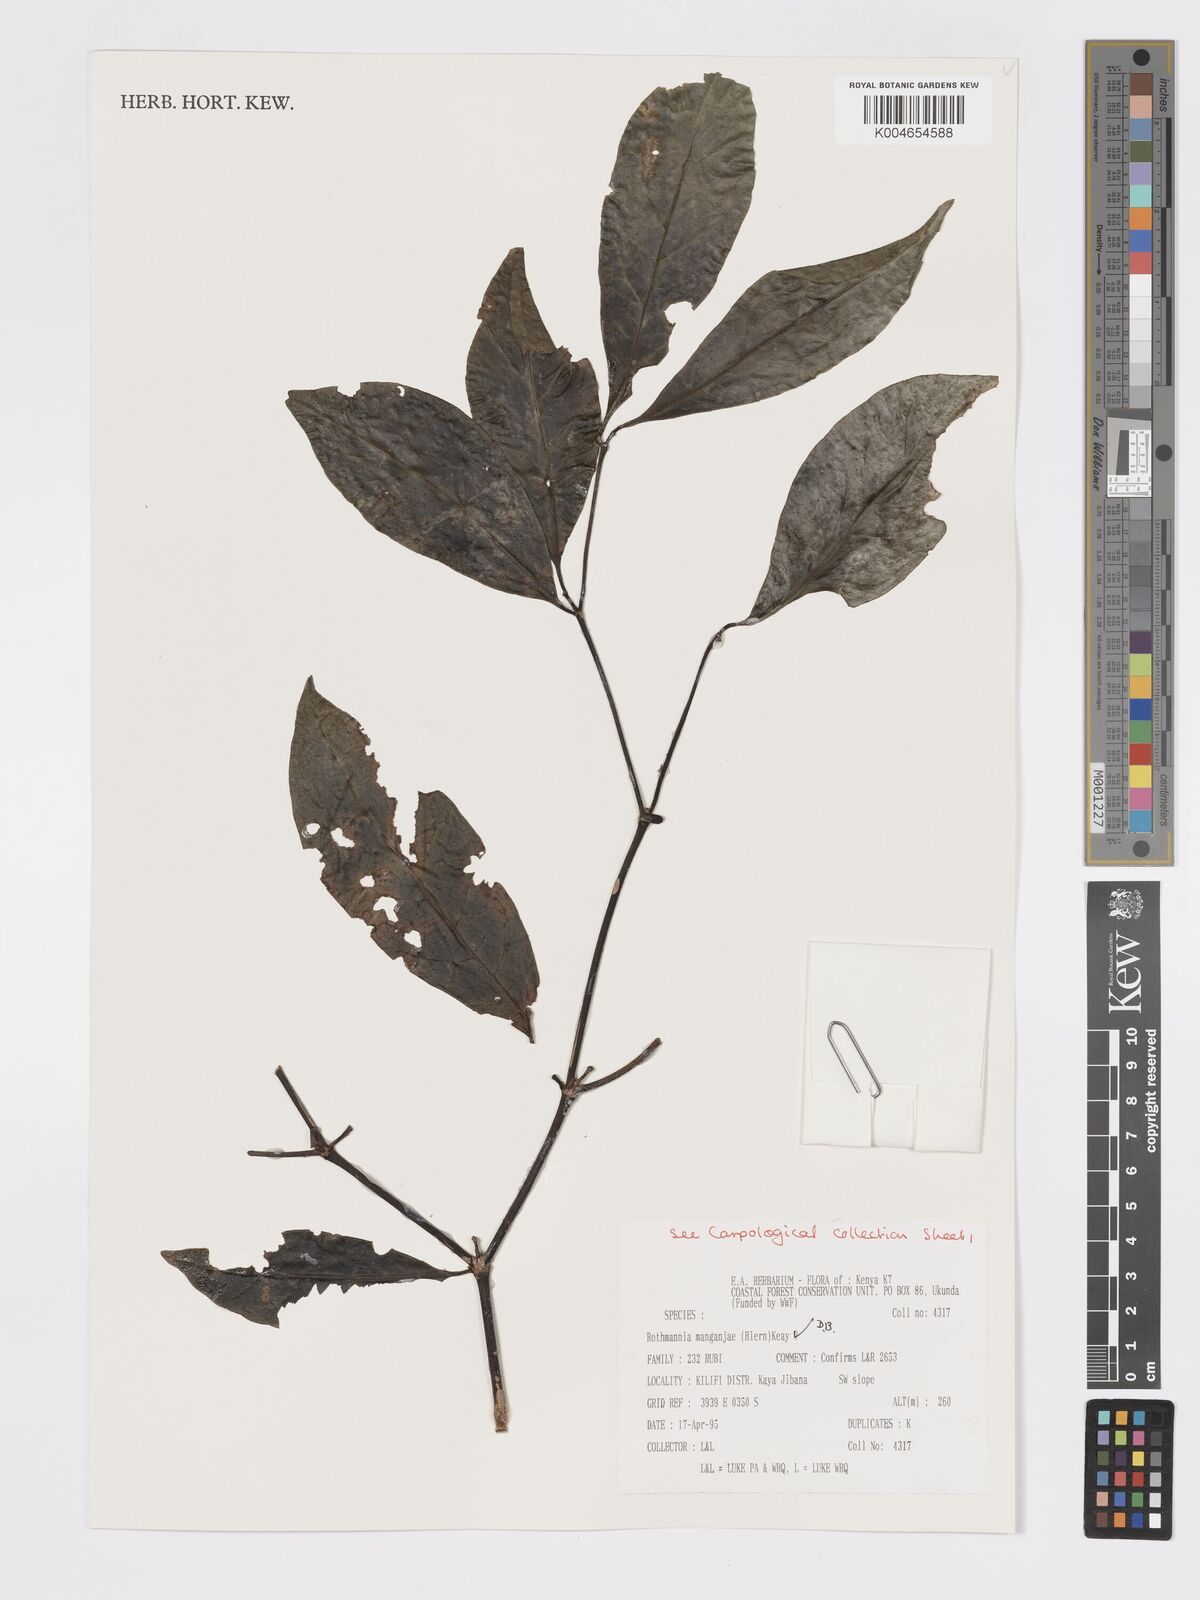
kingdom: Plantae
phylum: Tracheophyta
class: Magnoliopsida
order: Gentianales
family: Rubiaceae
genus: Rothmannia
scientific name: Rothmannia manganjae
